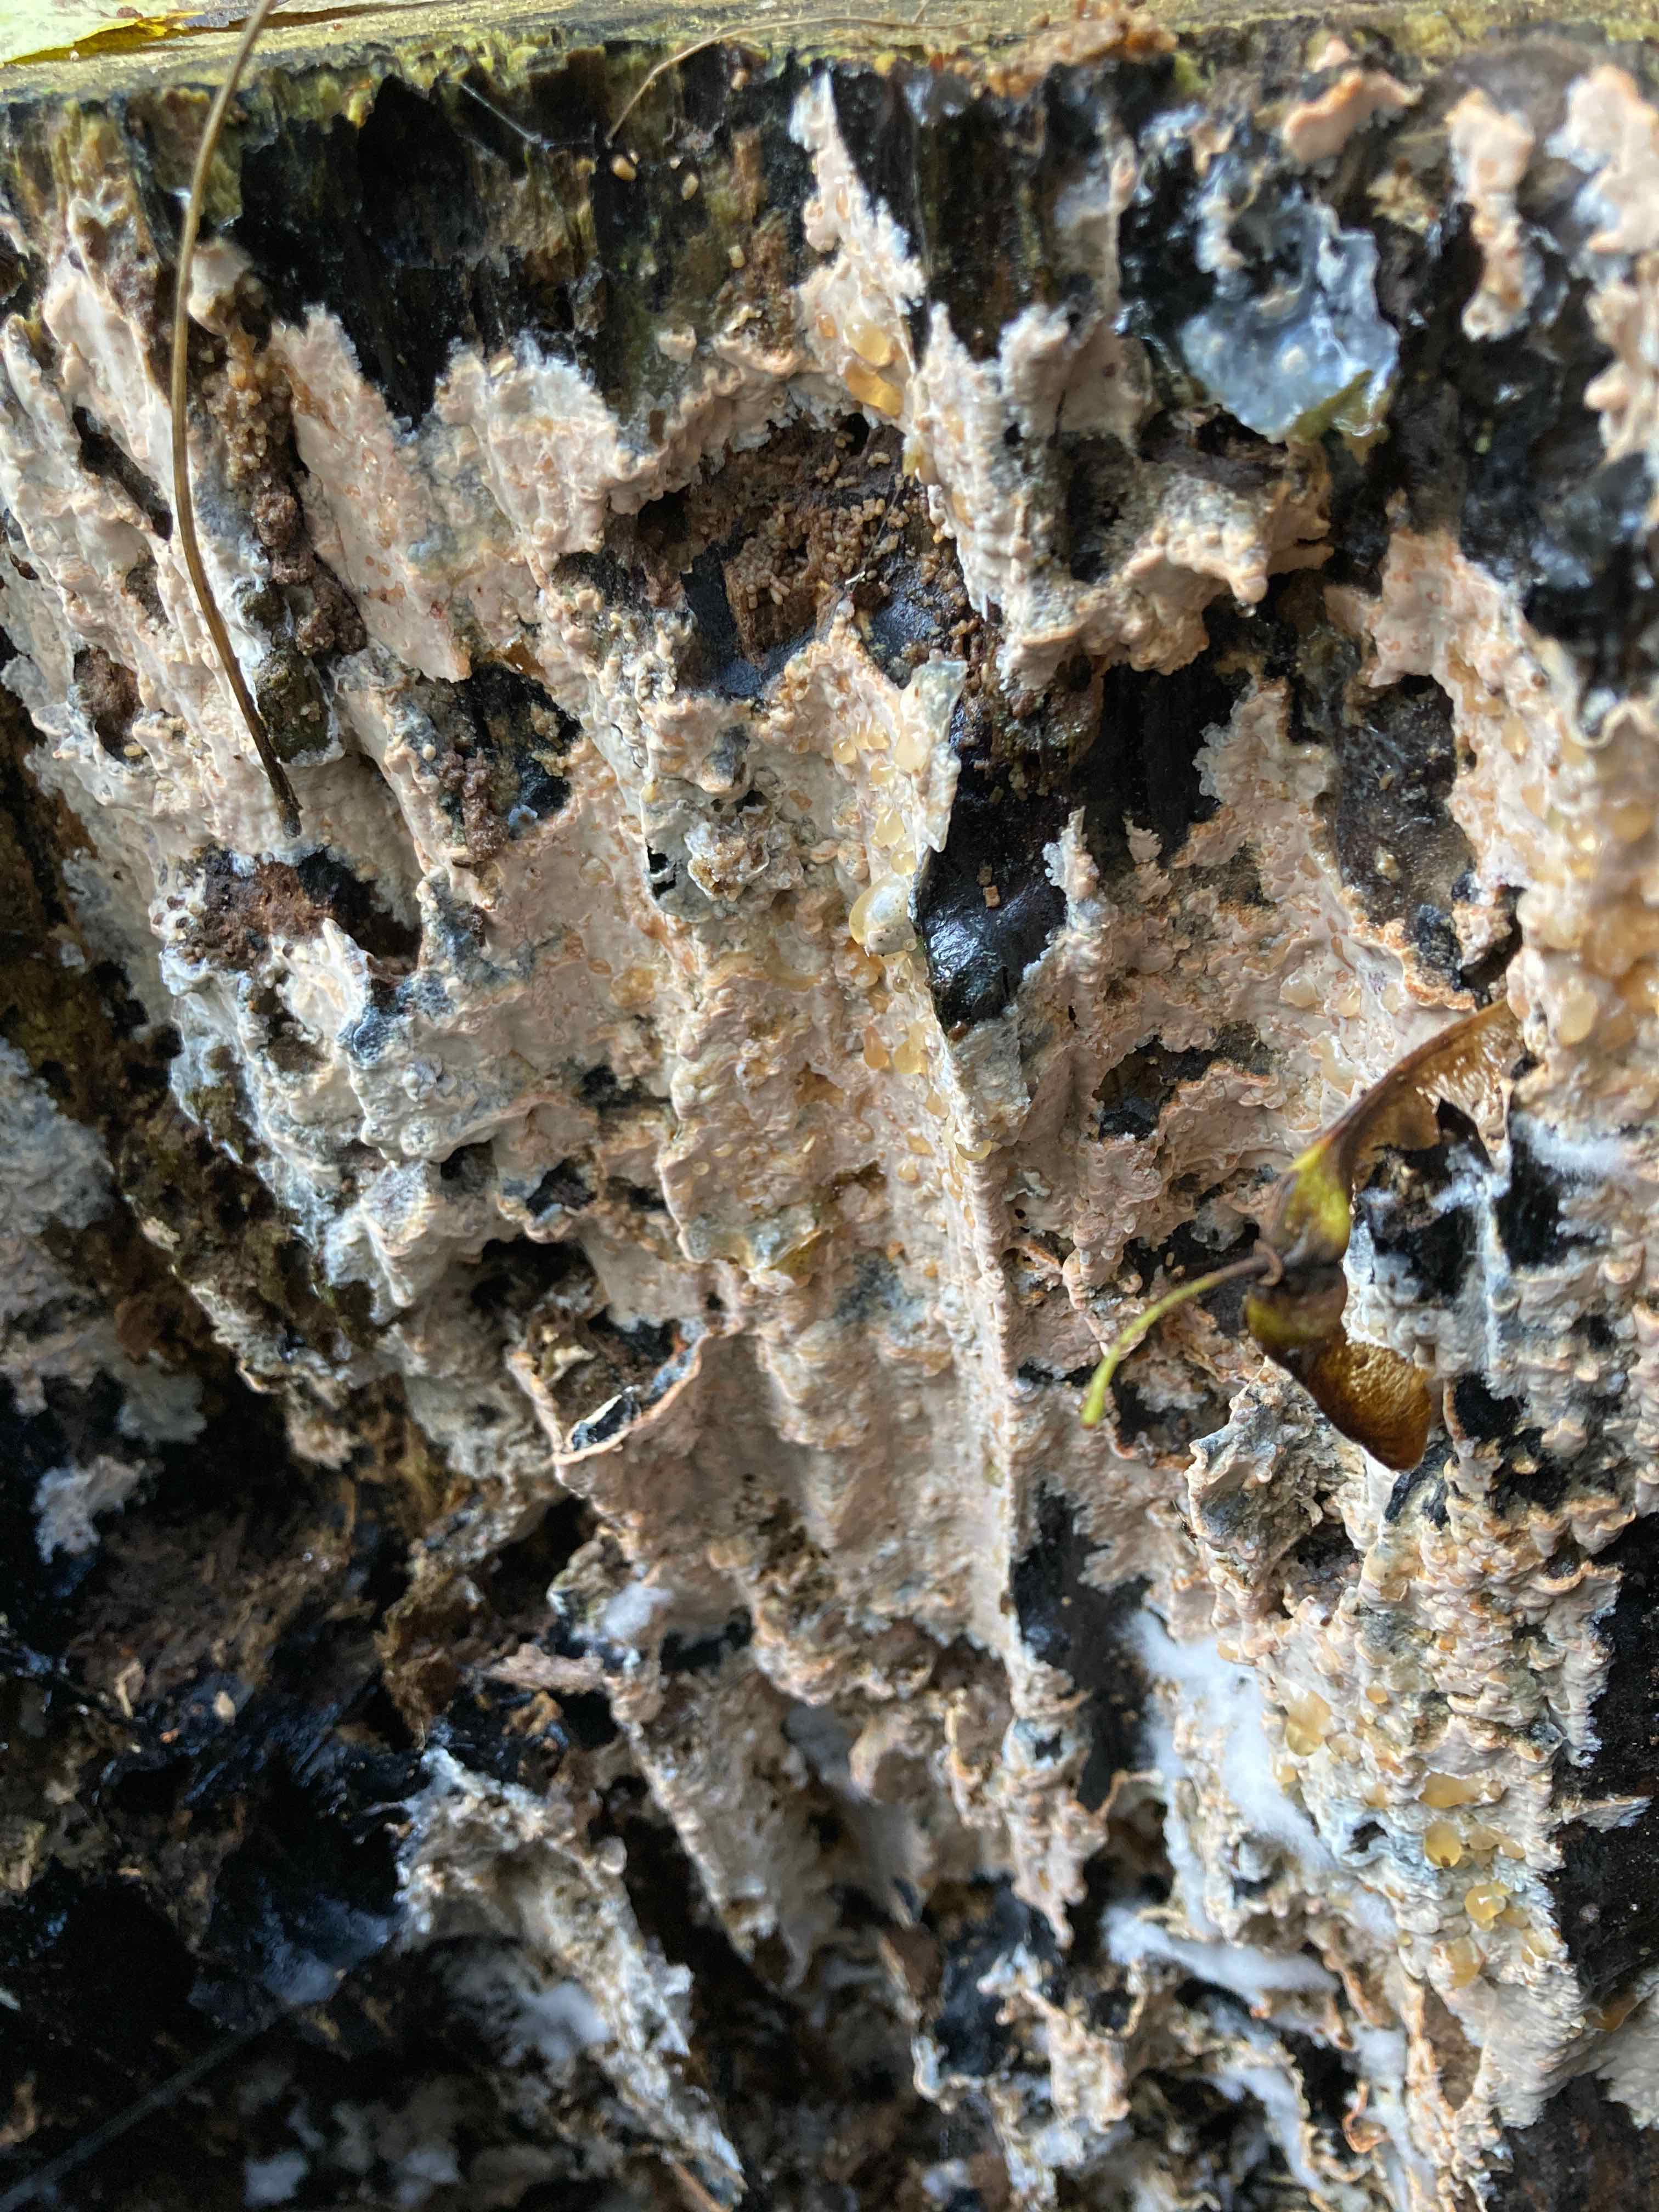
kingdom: Fungi
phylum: Basidiomycota
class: Agaricomycetes
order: Russulales
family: Peniophoraceae
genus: Gloiothele
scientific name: Gloiothele lactescens
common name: bitter olieskind
